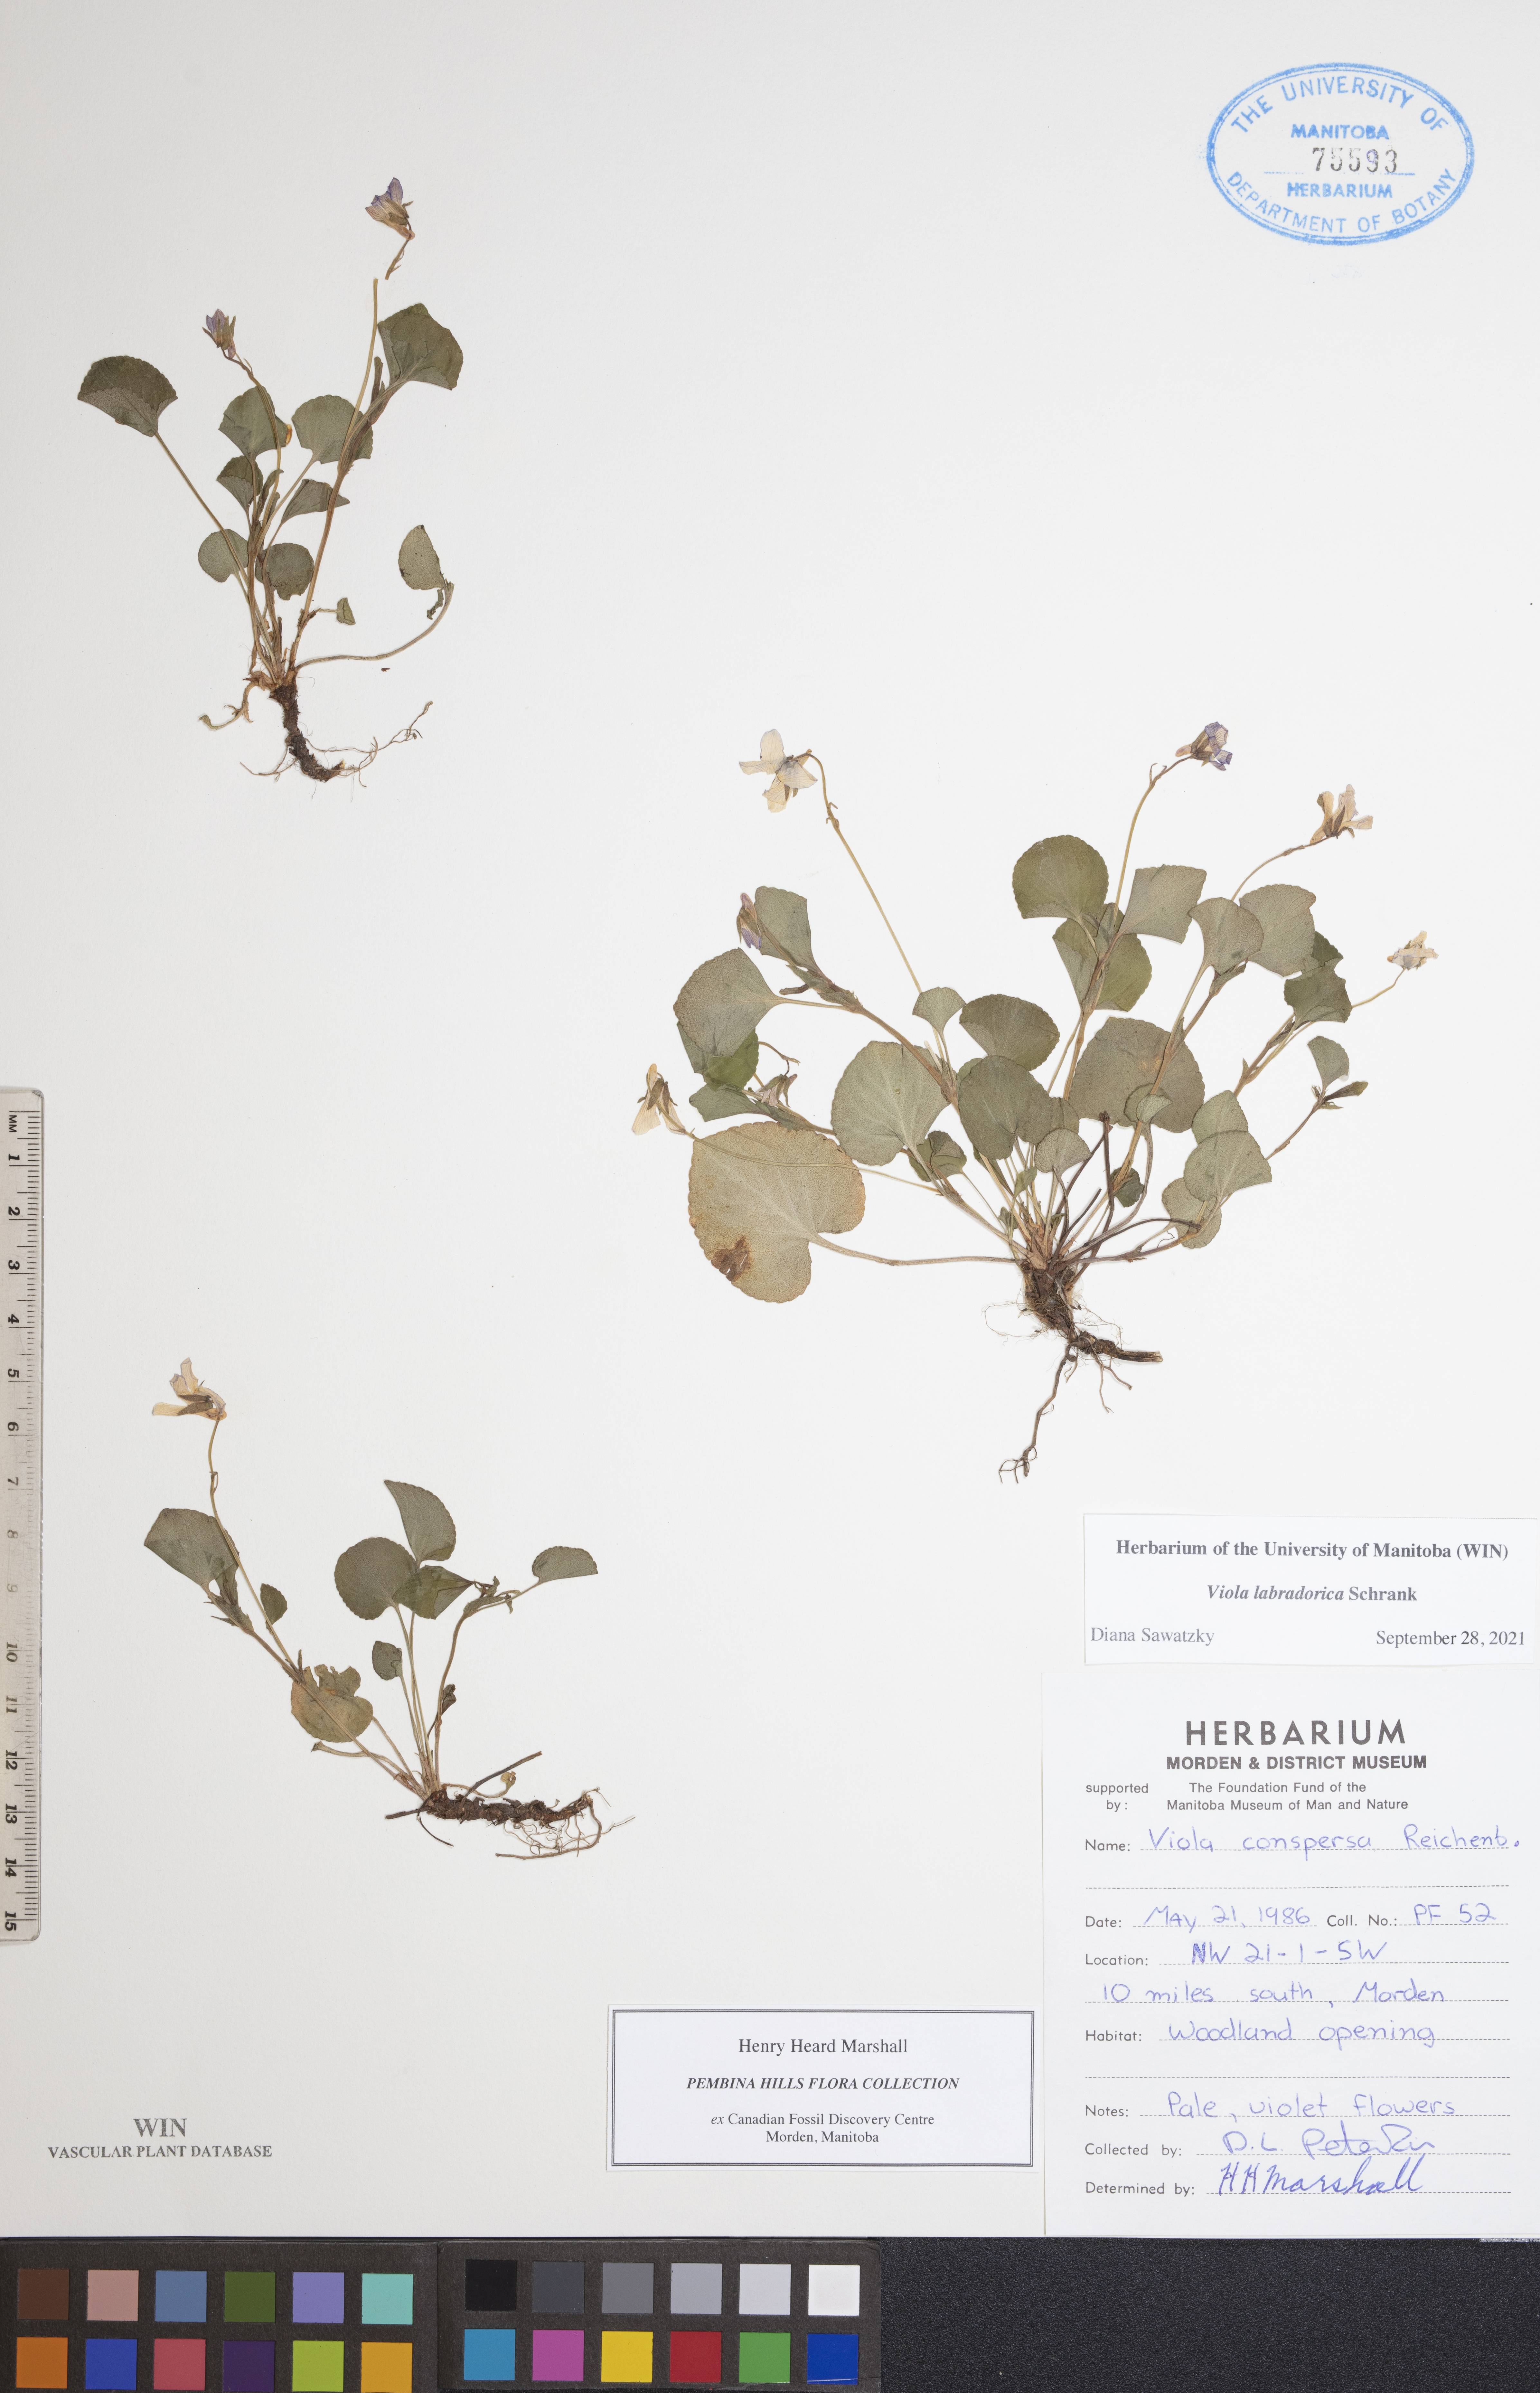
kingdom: Plantae
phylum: Tracheophyta
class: Magnoliopsida
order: Malpighiales
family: Violaceae
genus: Viola
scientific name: Viola labradorica
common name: Labrador violet
